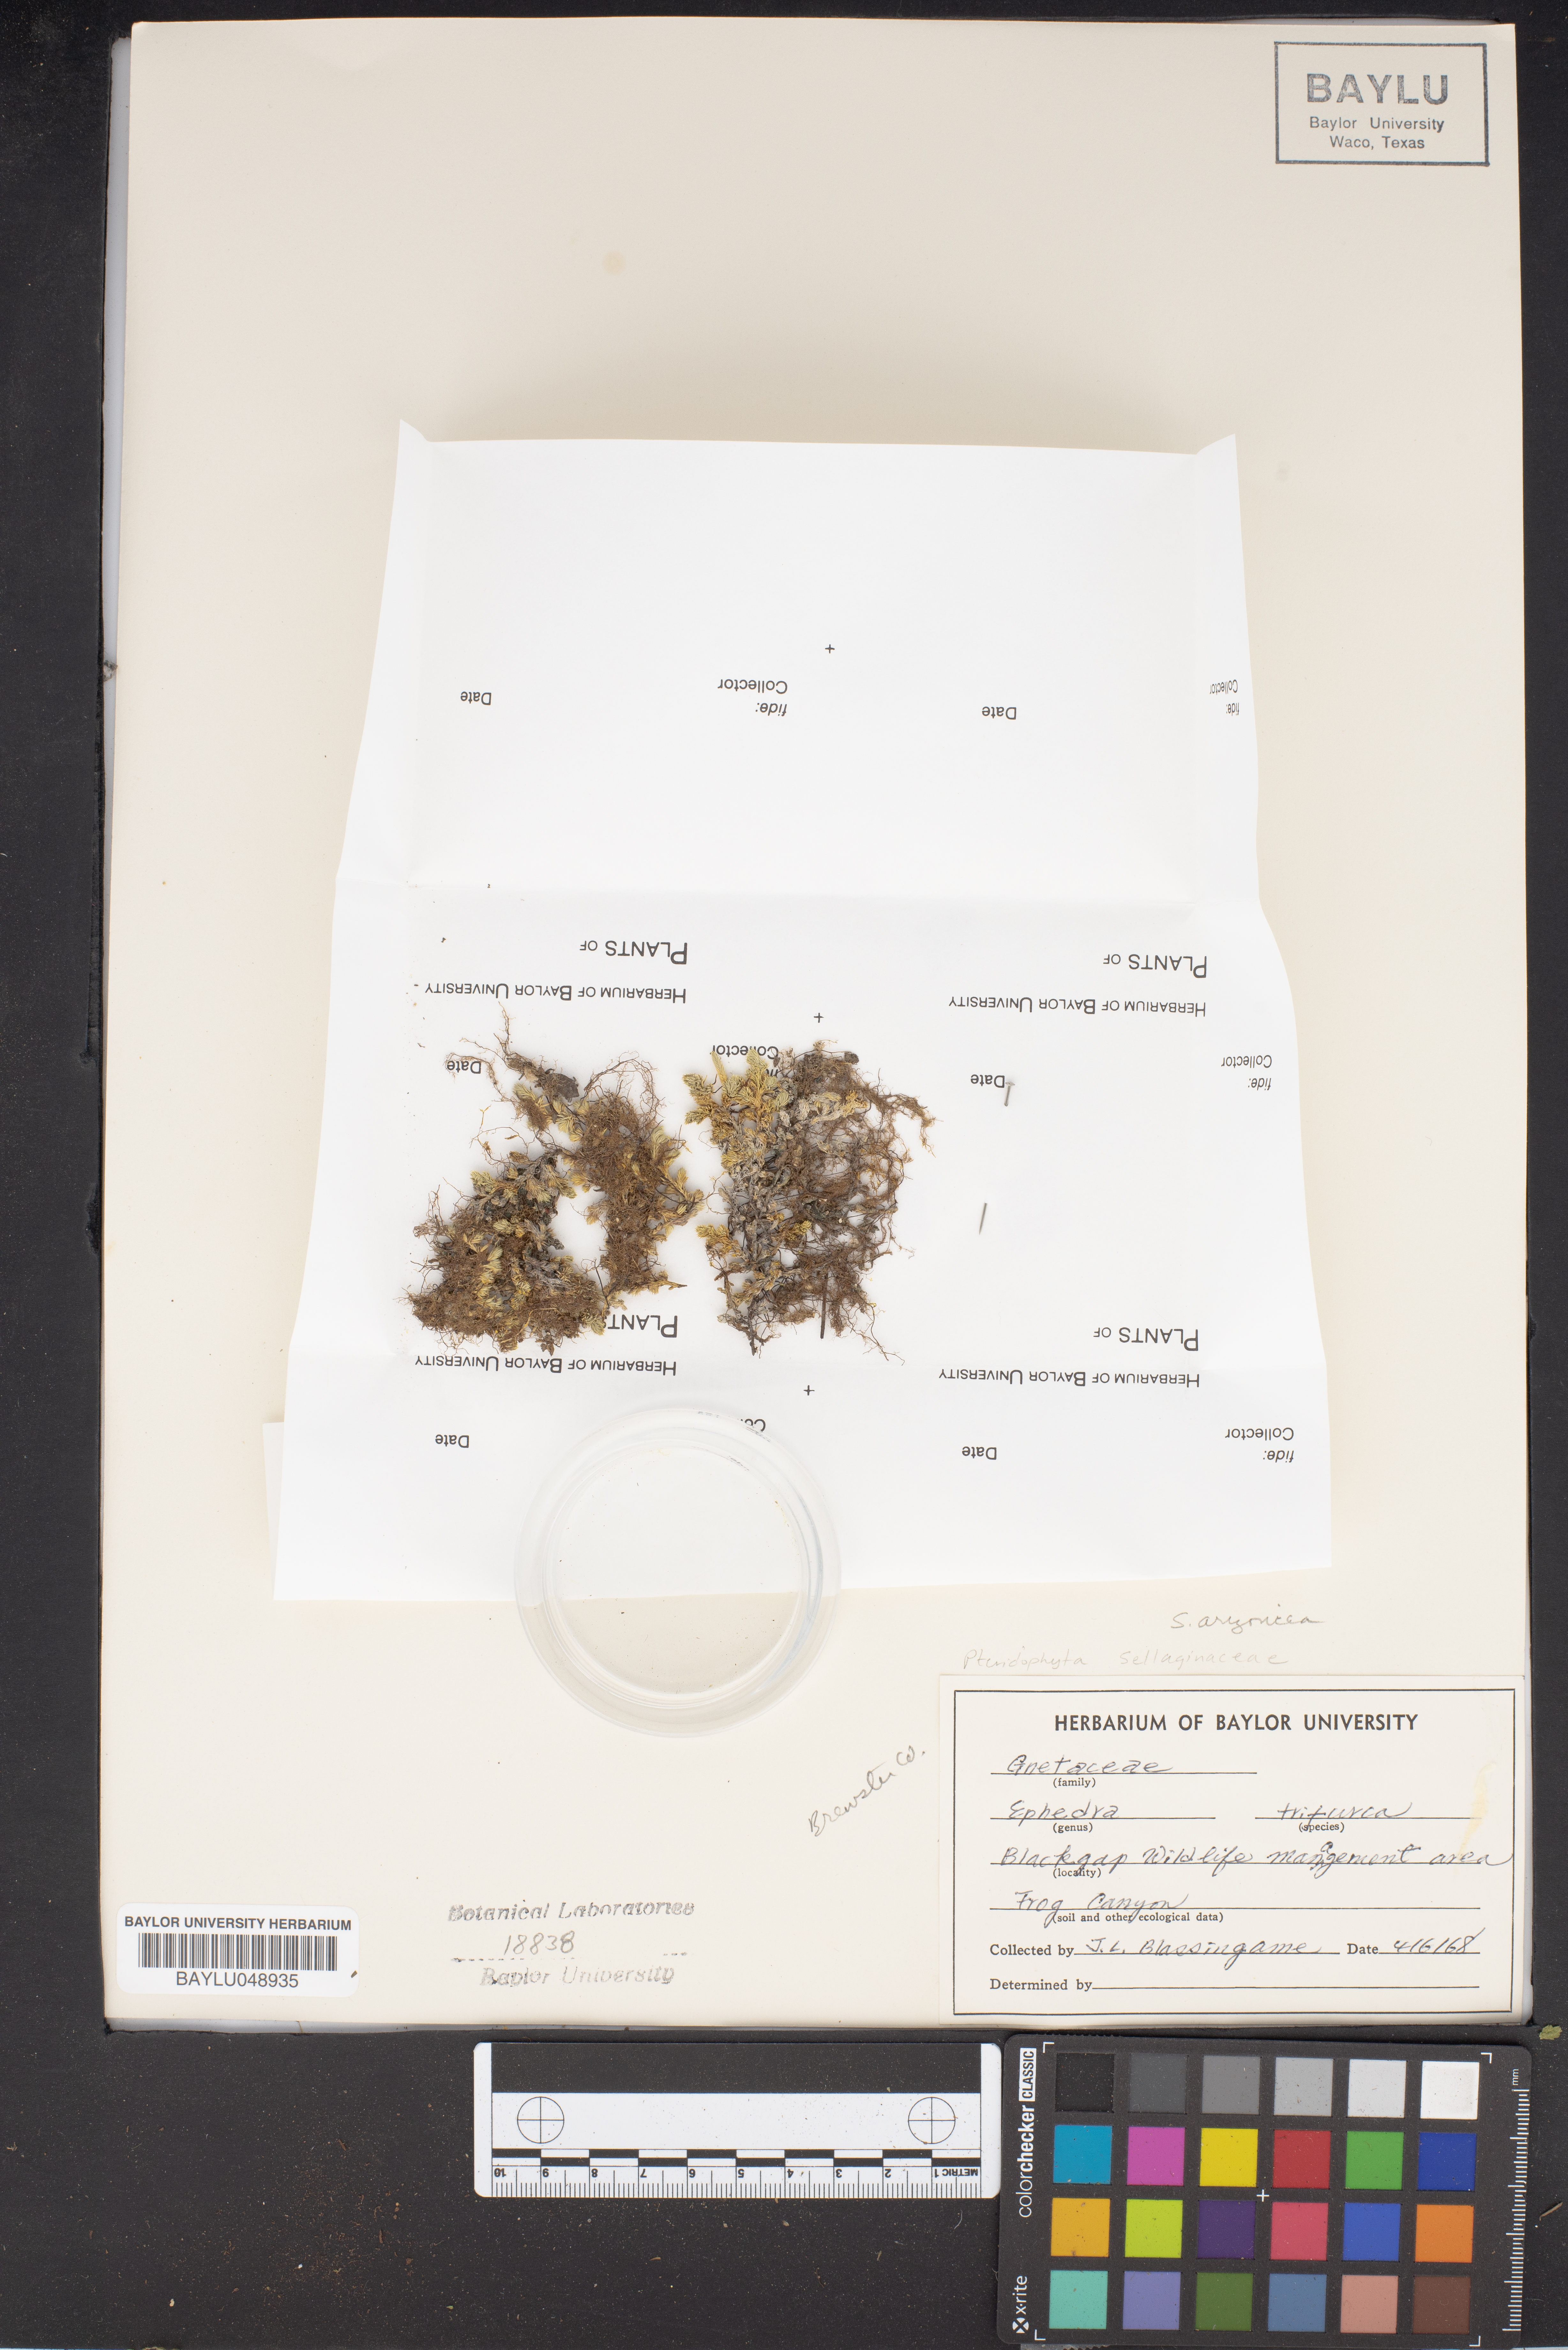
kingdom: Plantae
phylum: Tracheophyta
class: Gnetopsida
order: Ephedrales
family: Ephedraceae
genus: Ephedra
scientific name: Ephedra trifurca
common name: Mexican-tea
